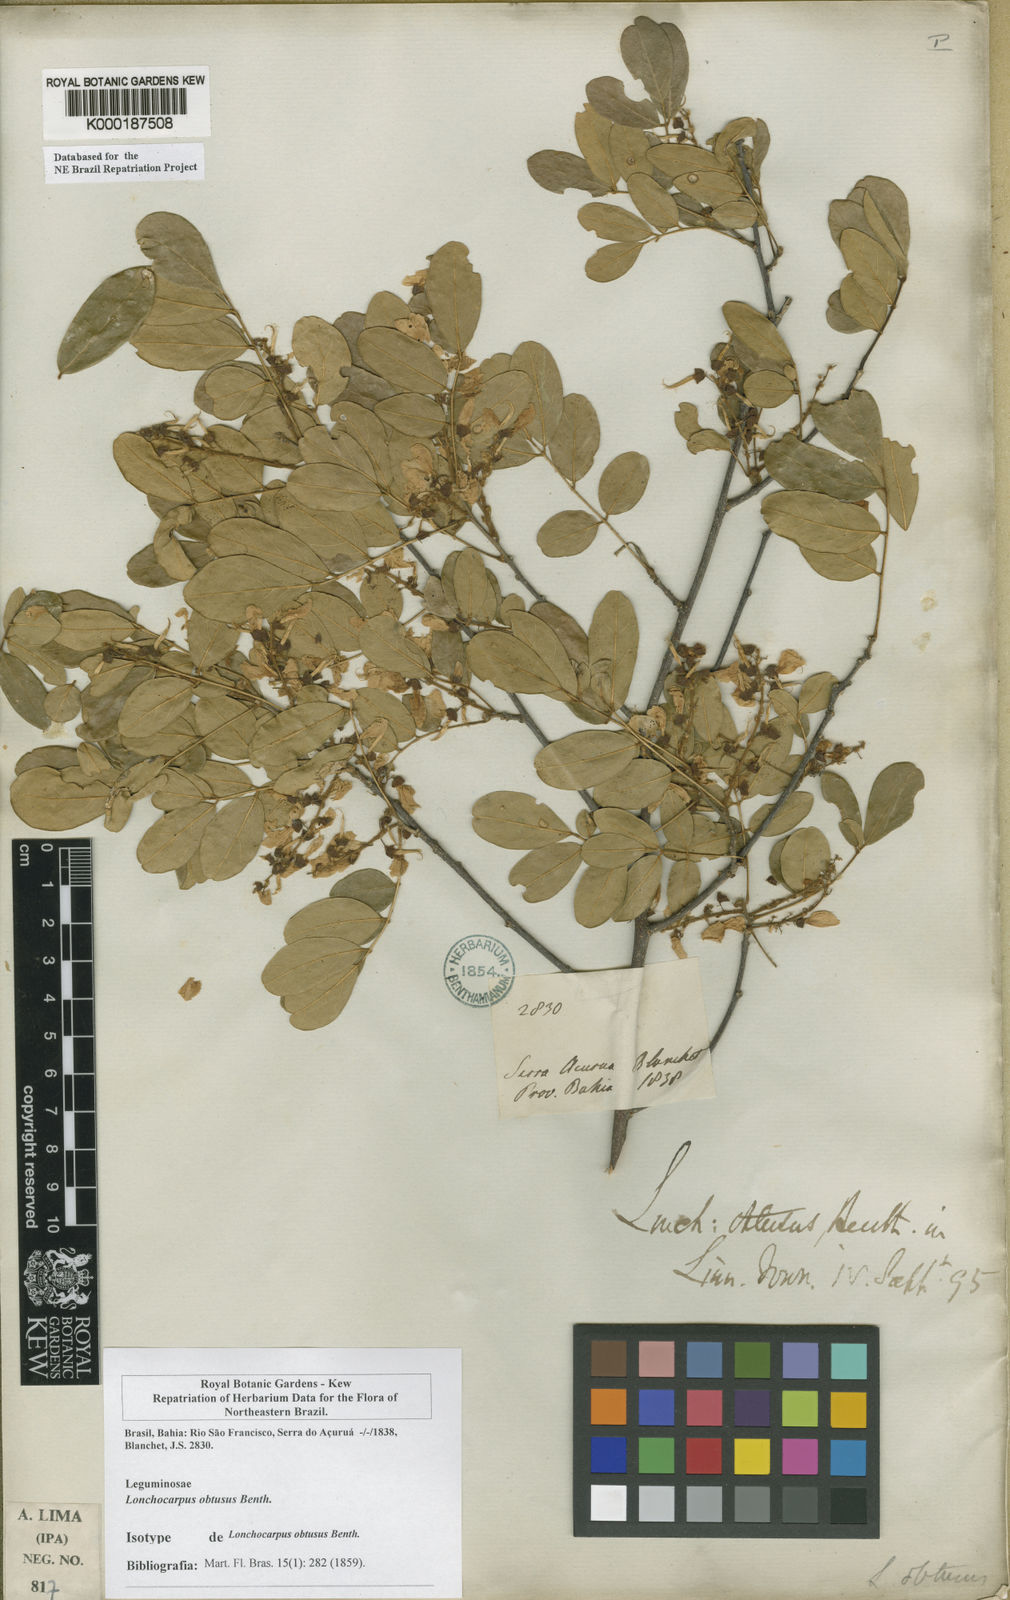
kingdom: Plantae
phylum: Tracheophyta
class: Magnoliopsida
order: Fabales
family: Fabaceae
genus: Muellera
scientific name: Muellera obtusa
